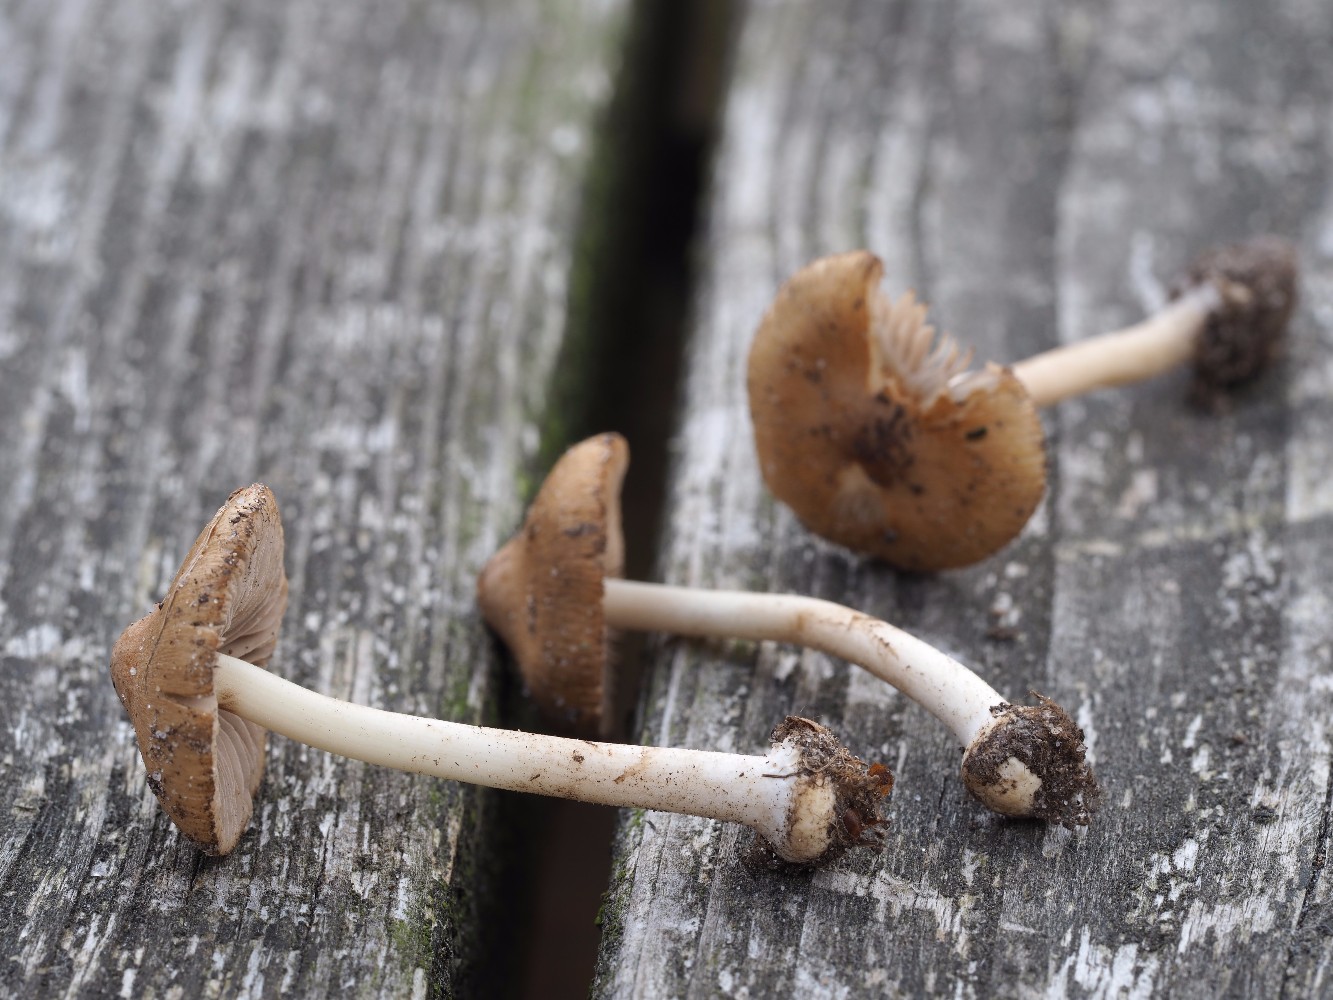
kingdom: Fungi
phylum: Basidiomycota
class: Agaricomycetes
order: Agaricales
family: Inocybaceae
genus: Inocybe
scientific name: Inocybe mixtilis
